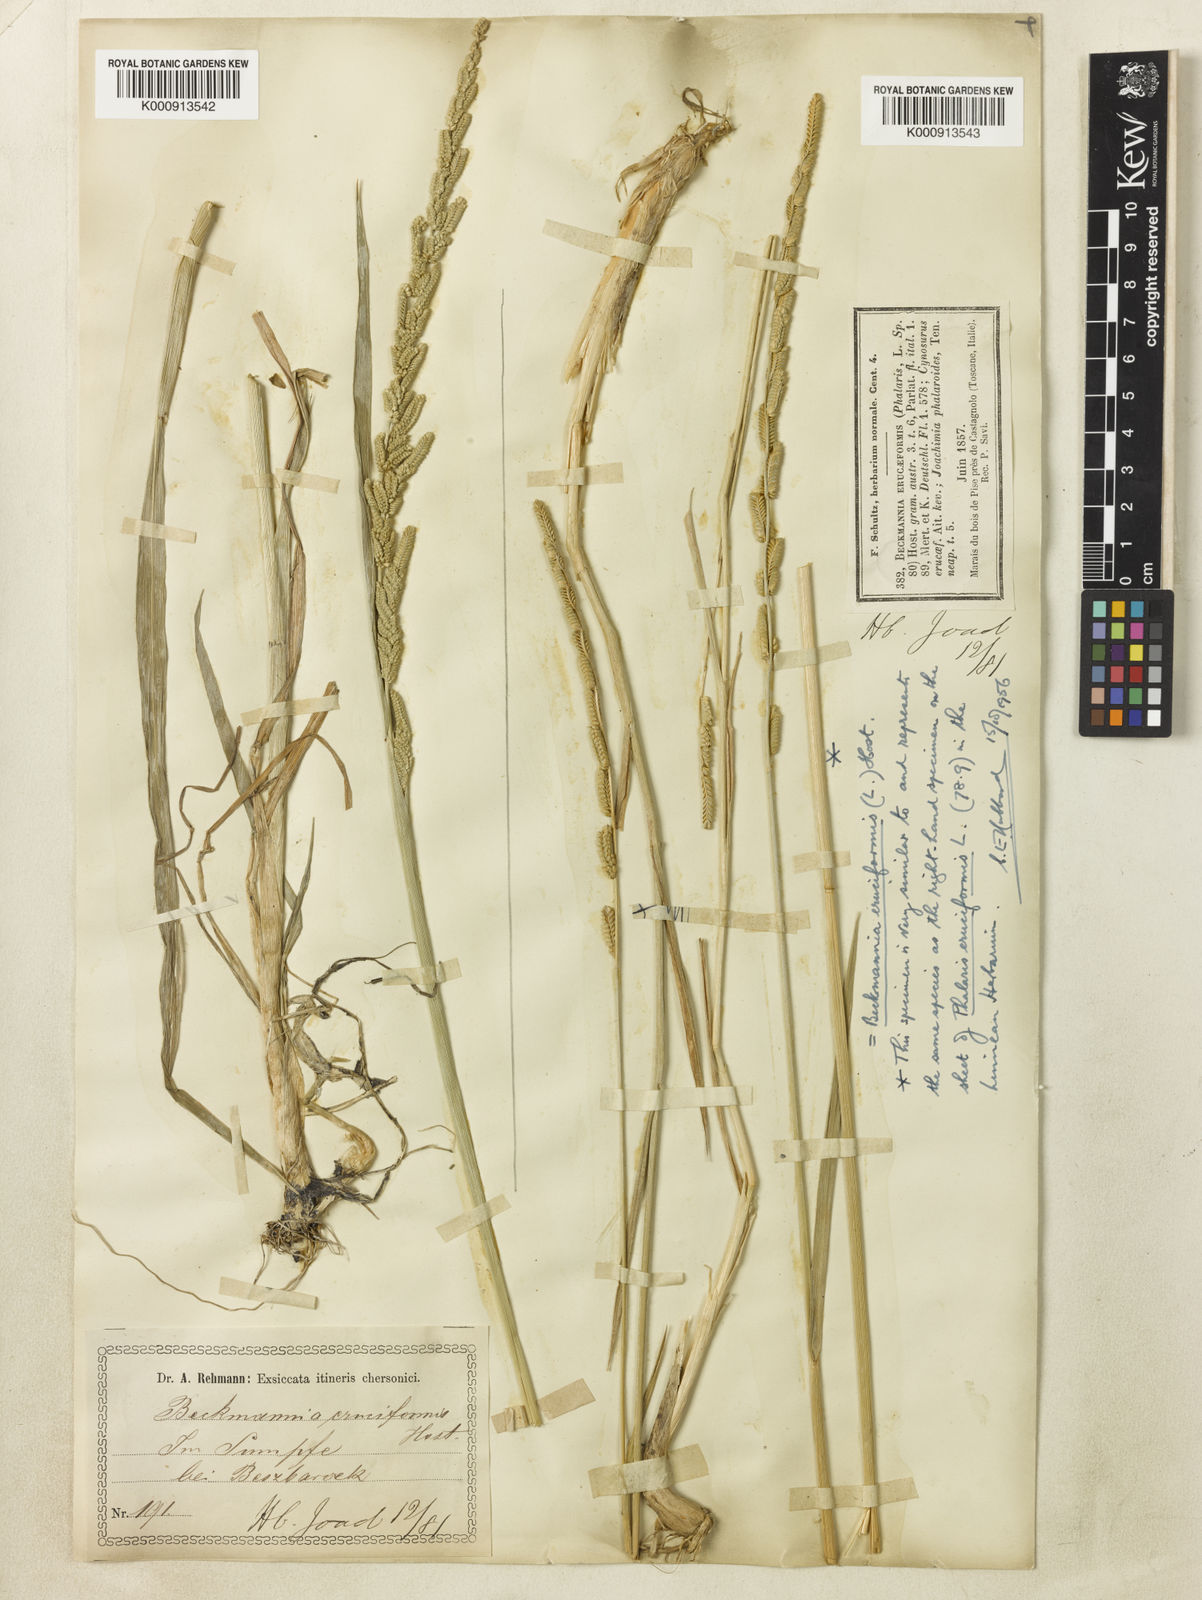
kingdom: Plantae
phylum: Tracheophyta
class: Liliopsida
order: Poales
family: Poaceae
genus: Beckmannia
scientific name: Beckmannia eruciformis
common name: European slough-grass
